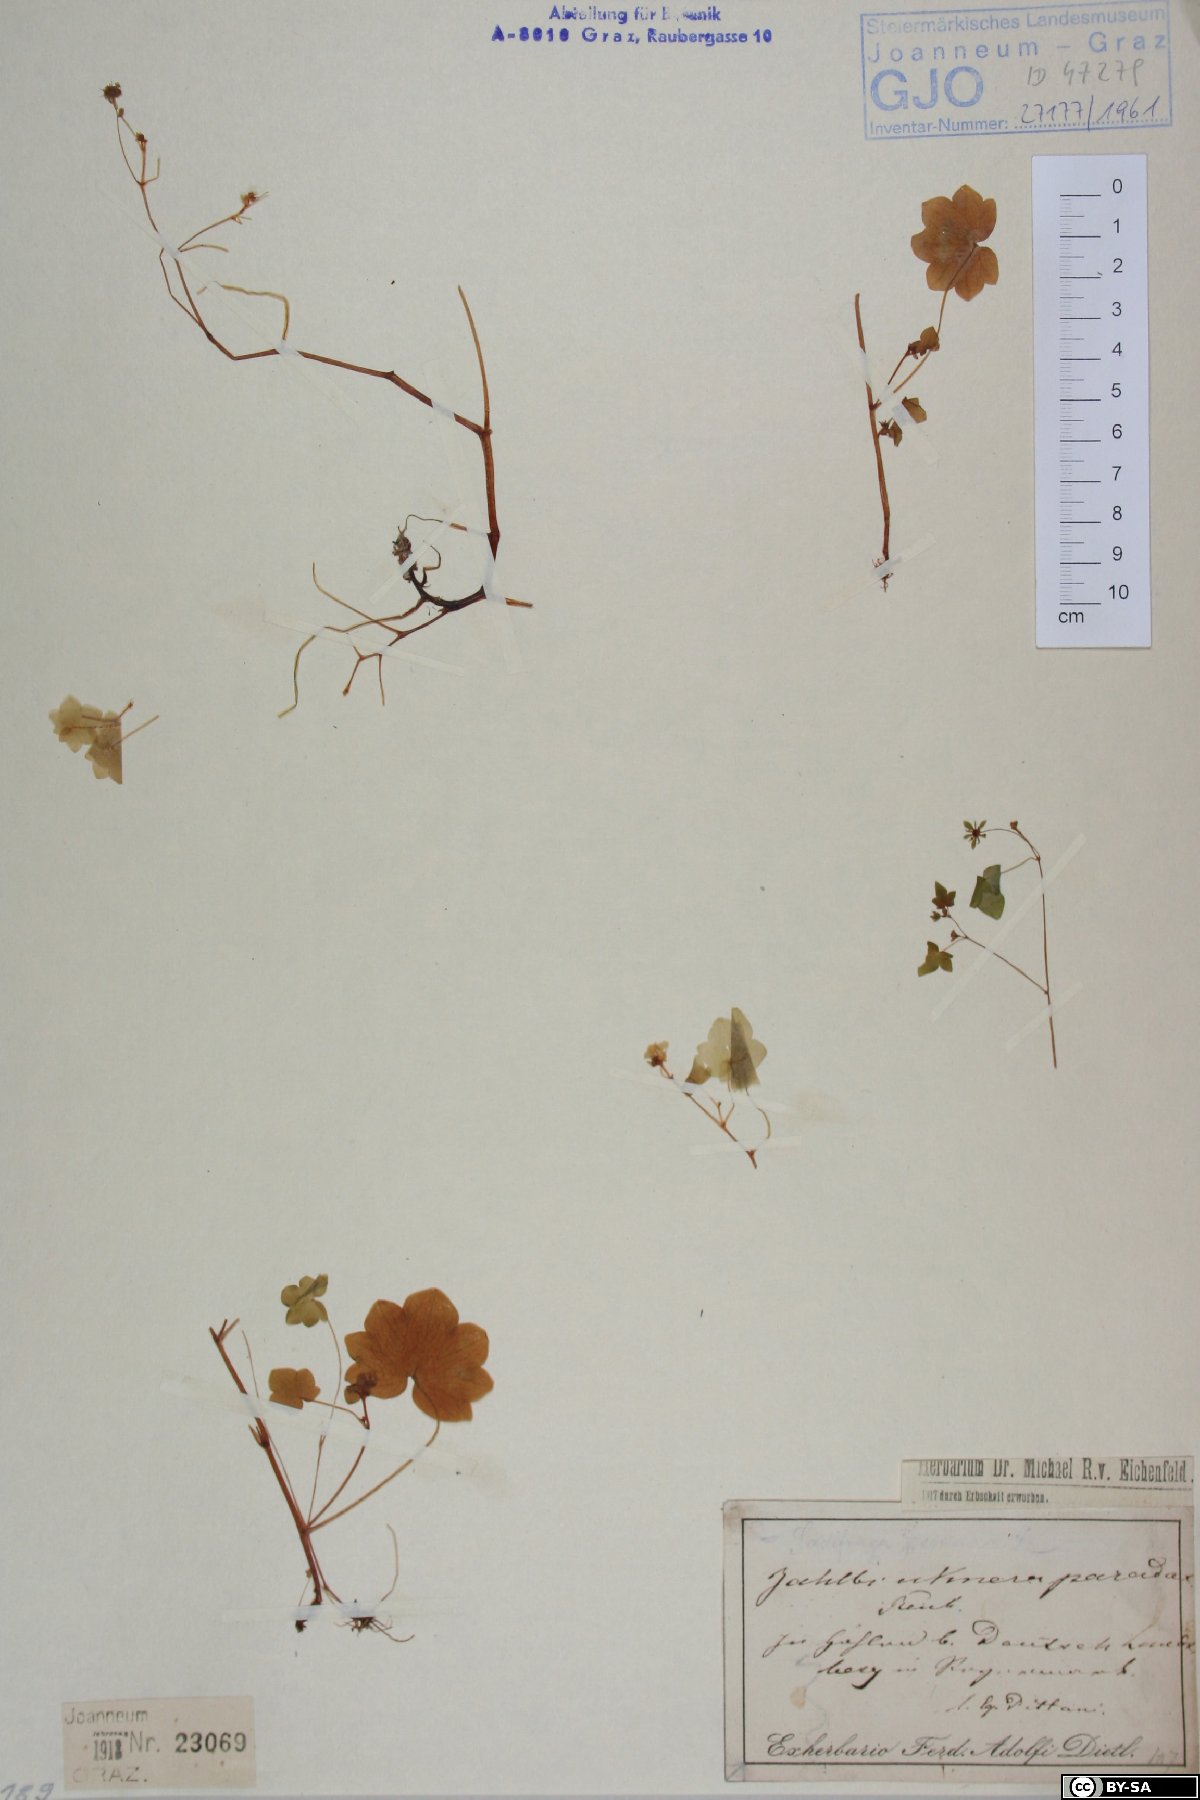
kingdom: Plantae
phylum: Tracheophyta
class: Magnoliopsida
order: Saxifragales
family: Saxifragaceae
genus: Saxifraga
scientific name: Saxifraga paradoxa
